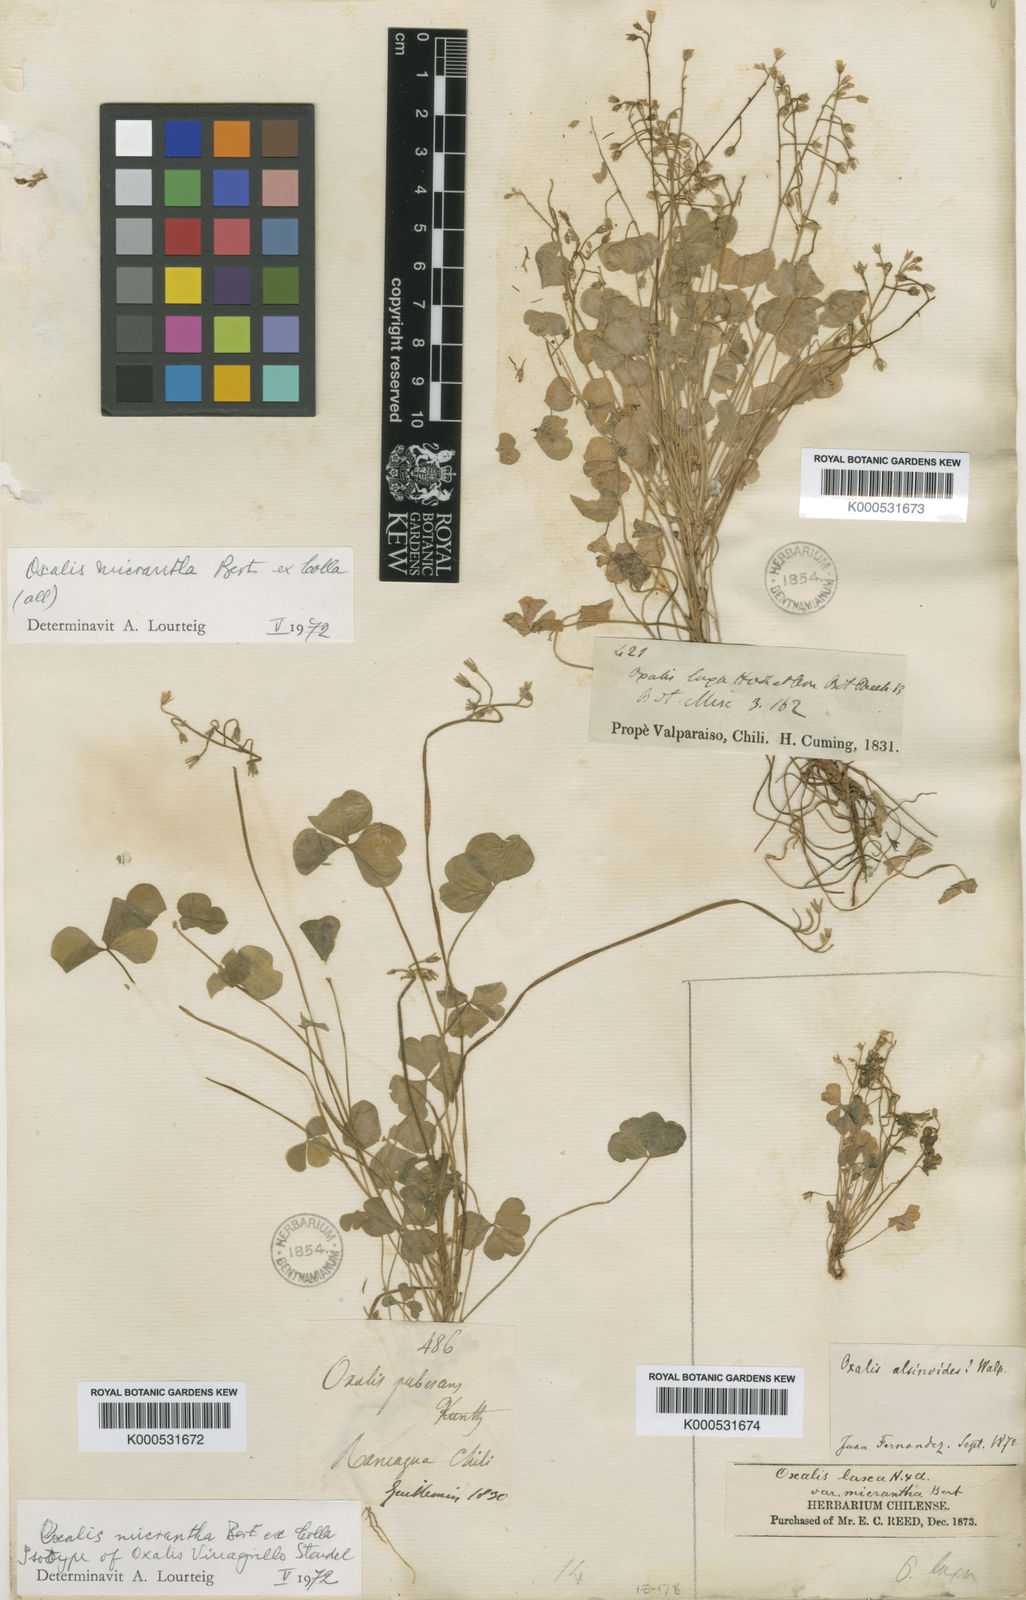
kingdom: Plantae
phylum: Tracheophyta
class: Magnoliopsida
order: Oxalidales
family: Oxalidaceae
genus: Oxalis
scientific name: Oxalis
